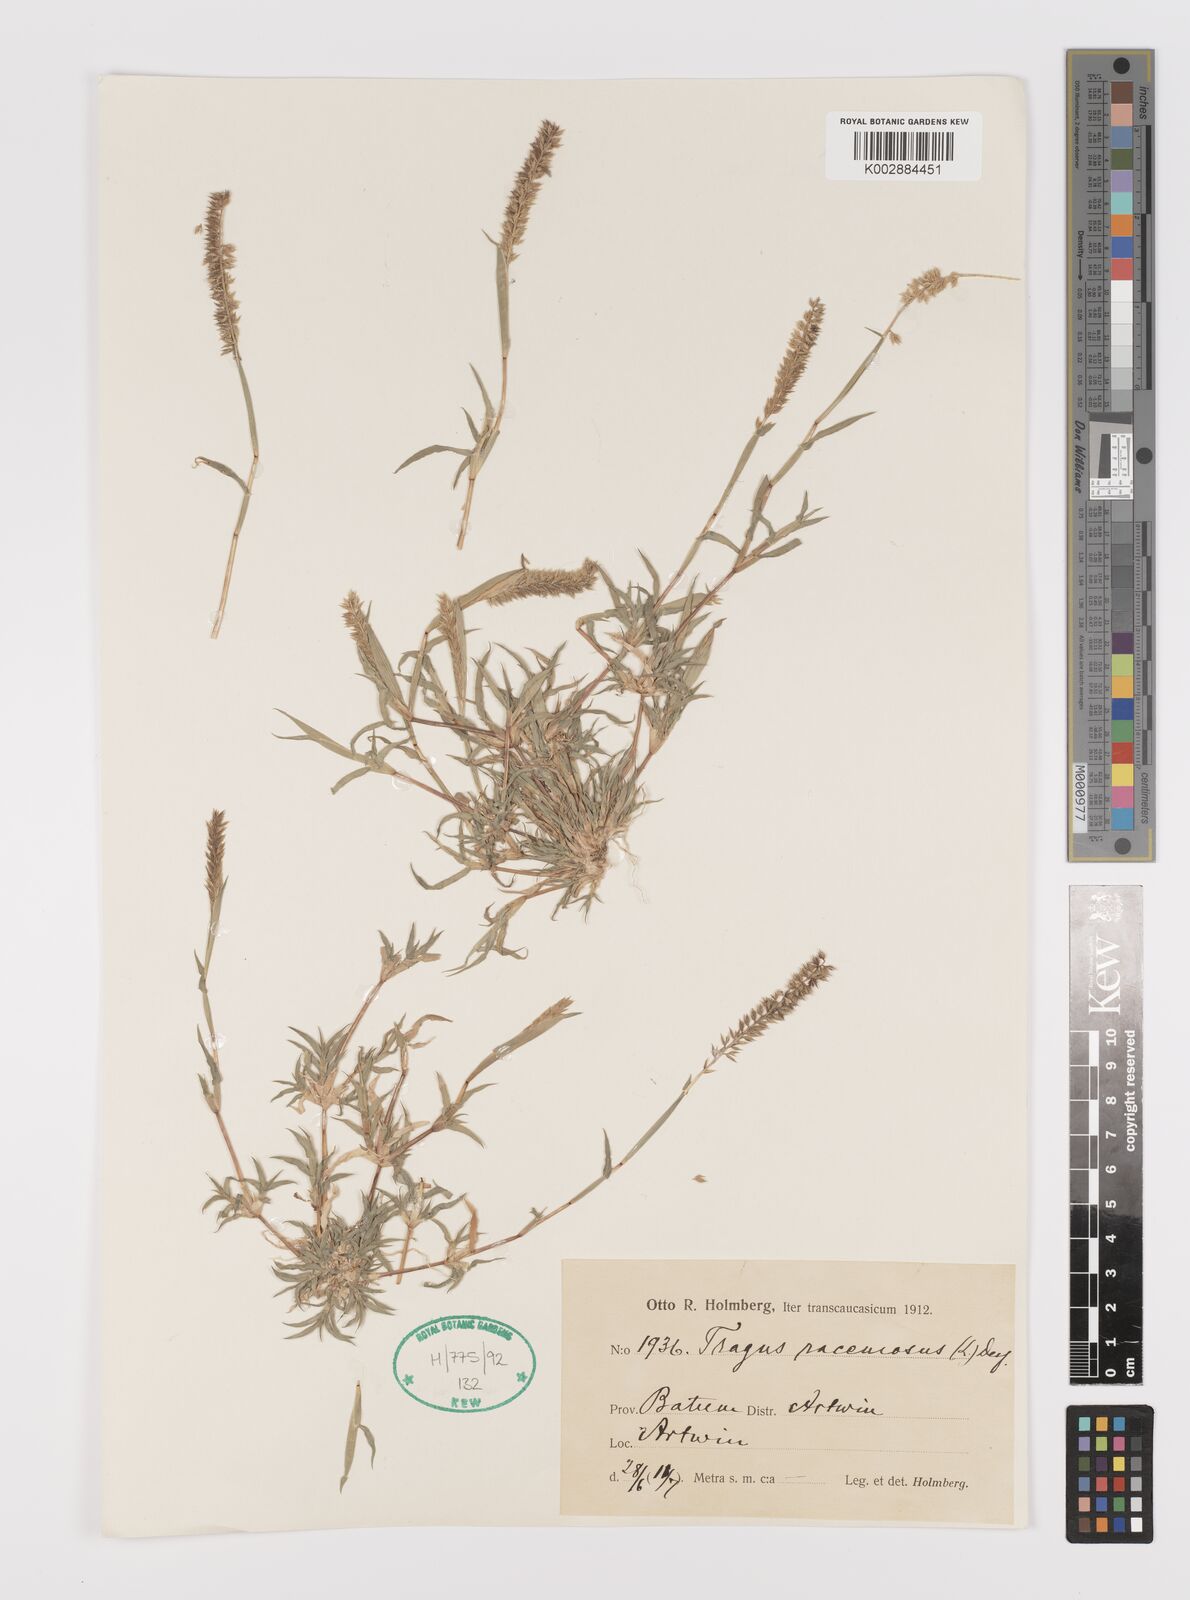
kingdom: Plantae
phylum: Tracheophyta
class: Liliopsida
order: Poales
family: Poaceae
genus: Tragus
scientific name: Tragus racemosus
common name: European bur-grass
